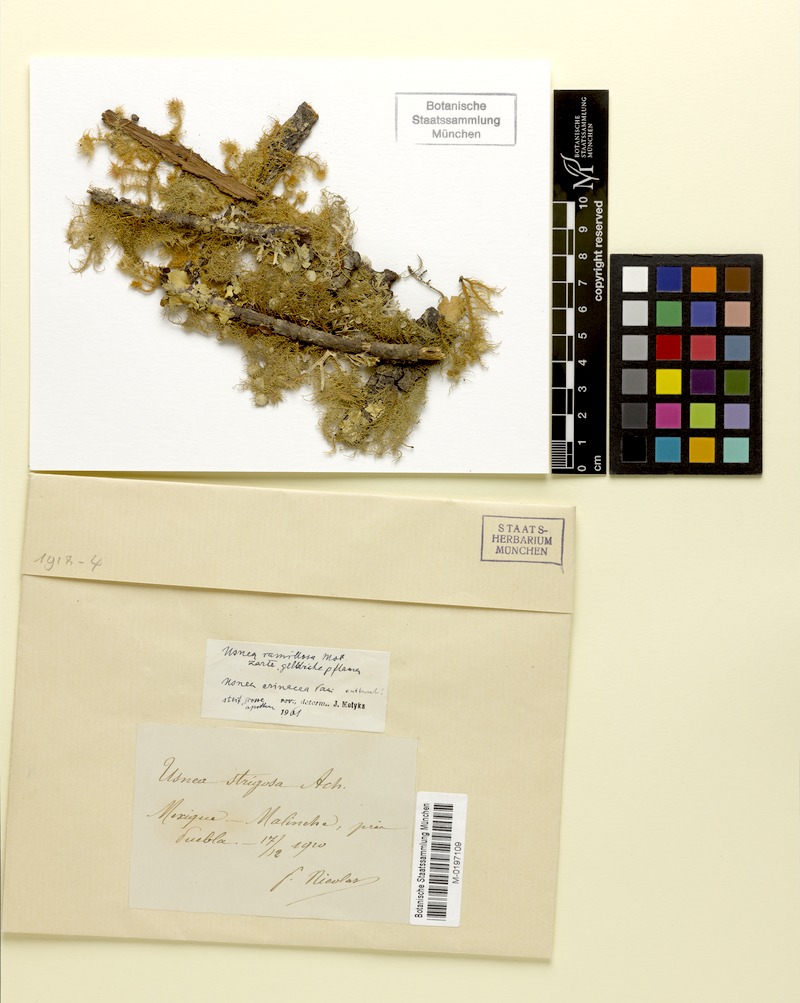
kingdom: Fungi
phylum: Ascomycota
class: Lecanoromycetes
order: Lecanorales
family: Parmeliaceae
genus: Usnea
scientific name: Usnea cirrosa
